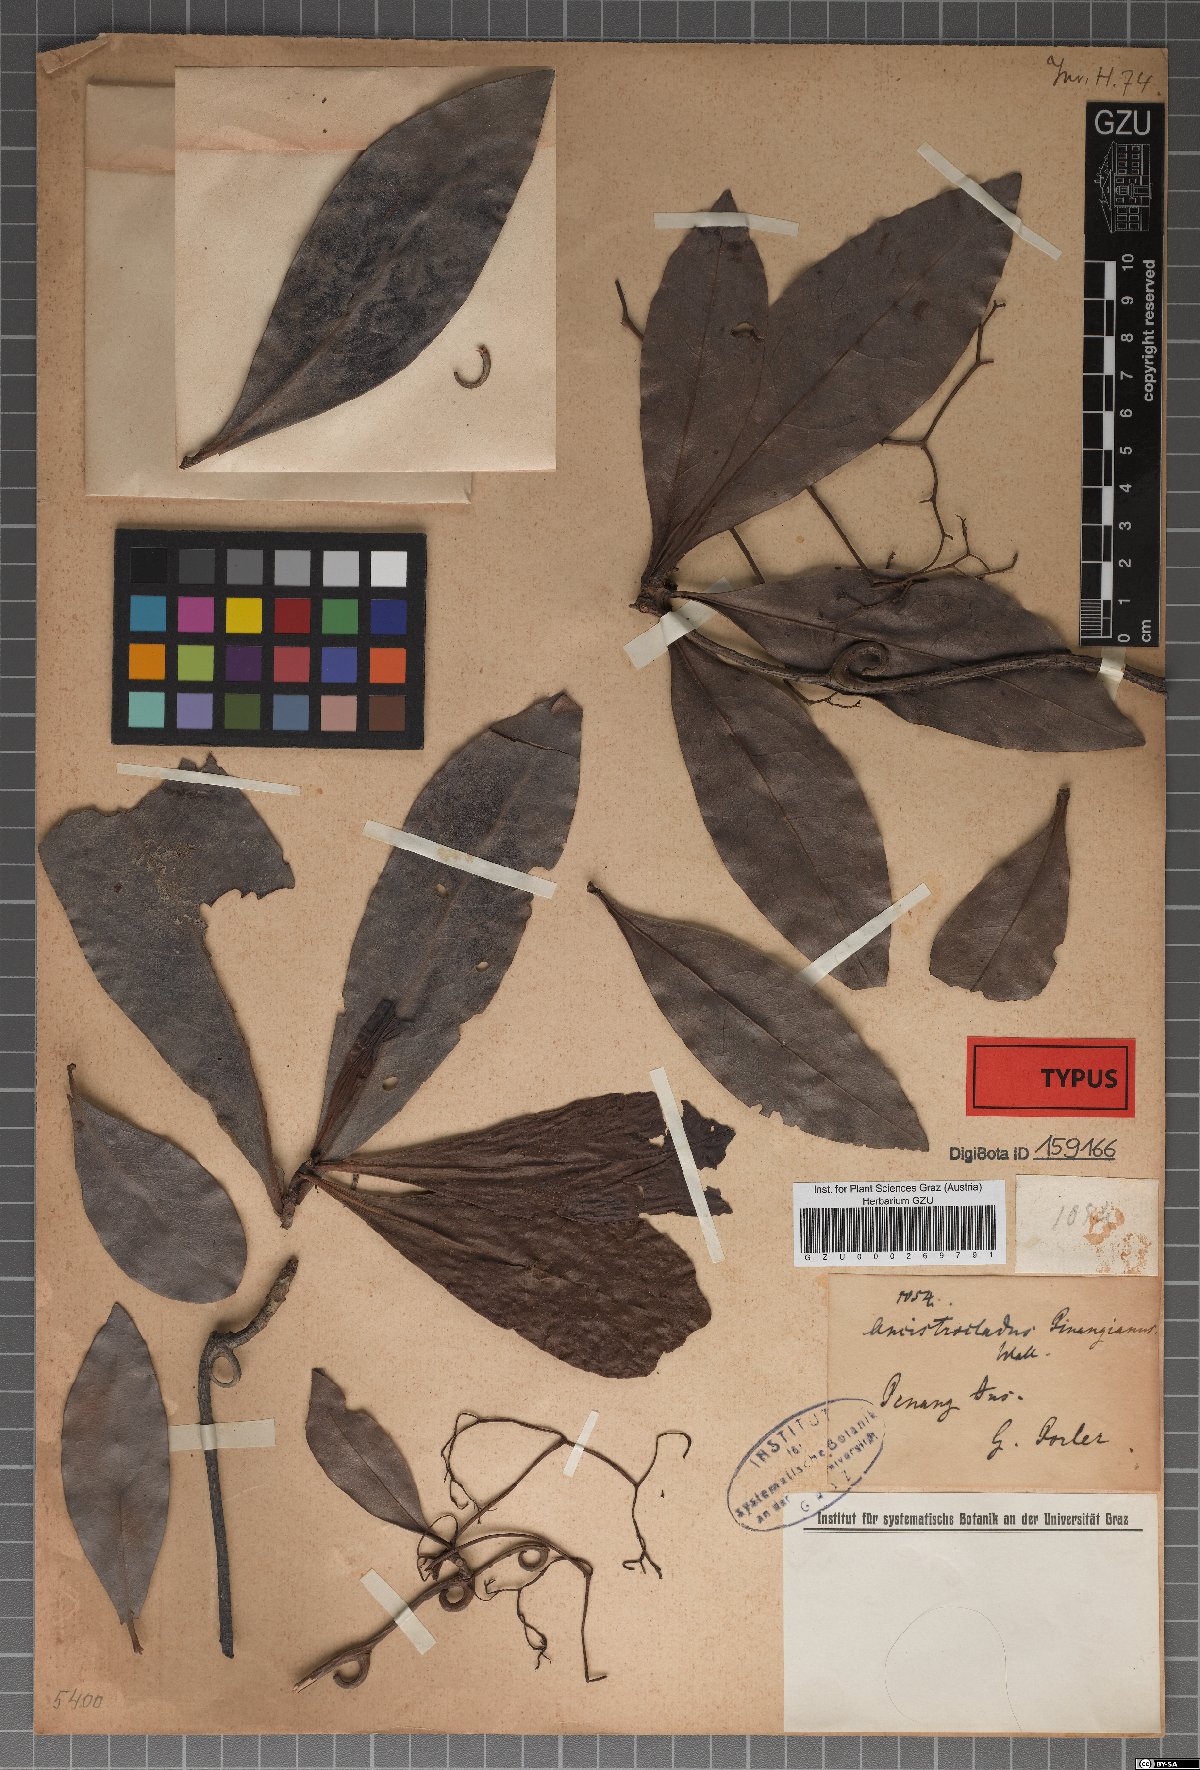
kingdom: Plantae
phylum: Tracheophyta
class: Magnoliopsida
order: Caryophyllales
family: Ancistrocladaceae
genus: Ancistrocladus
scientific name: Ancistrocladus tectorius
